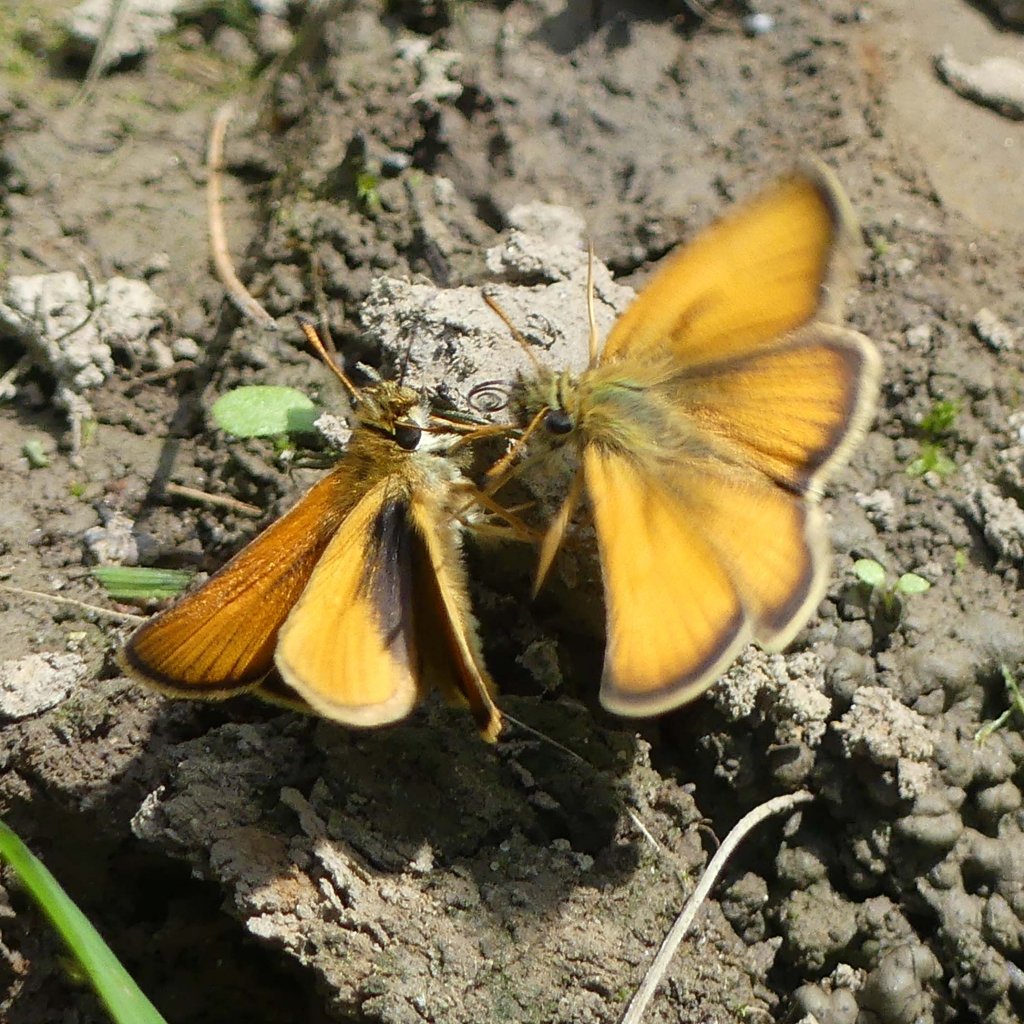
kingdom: Animalia
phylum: Arthropoda
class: Insecta
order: Lepidoptera
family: Hesperiidae
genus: Thymelicus
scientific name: Thymelicus lineola
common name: European Skipper
